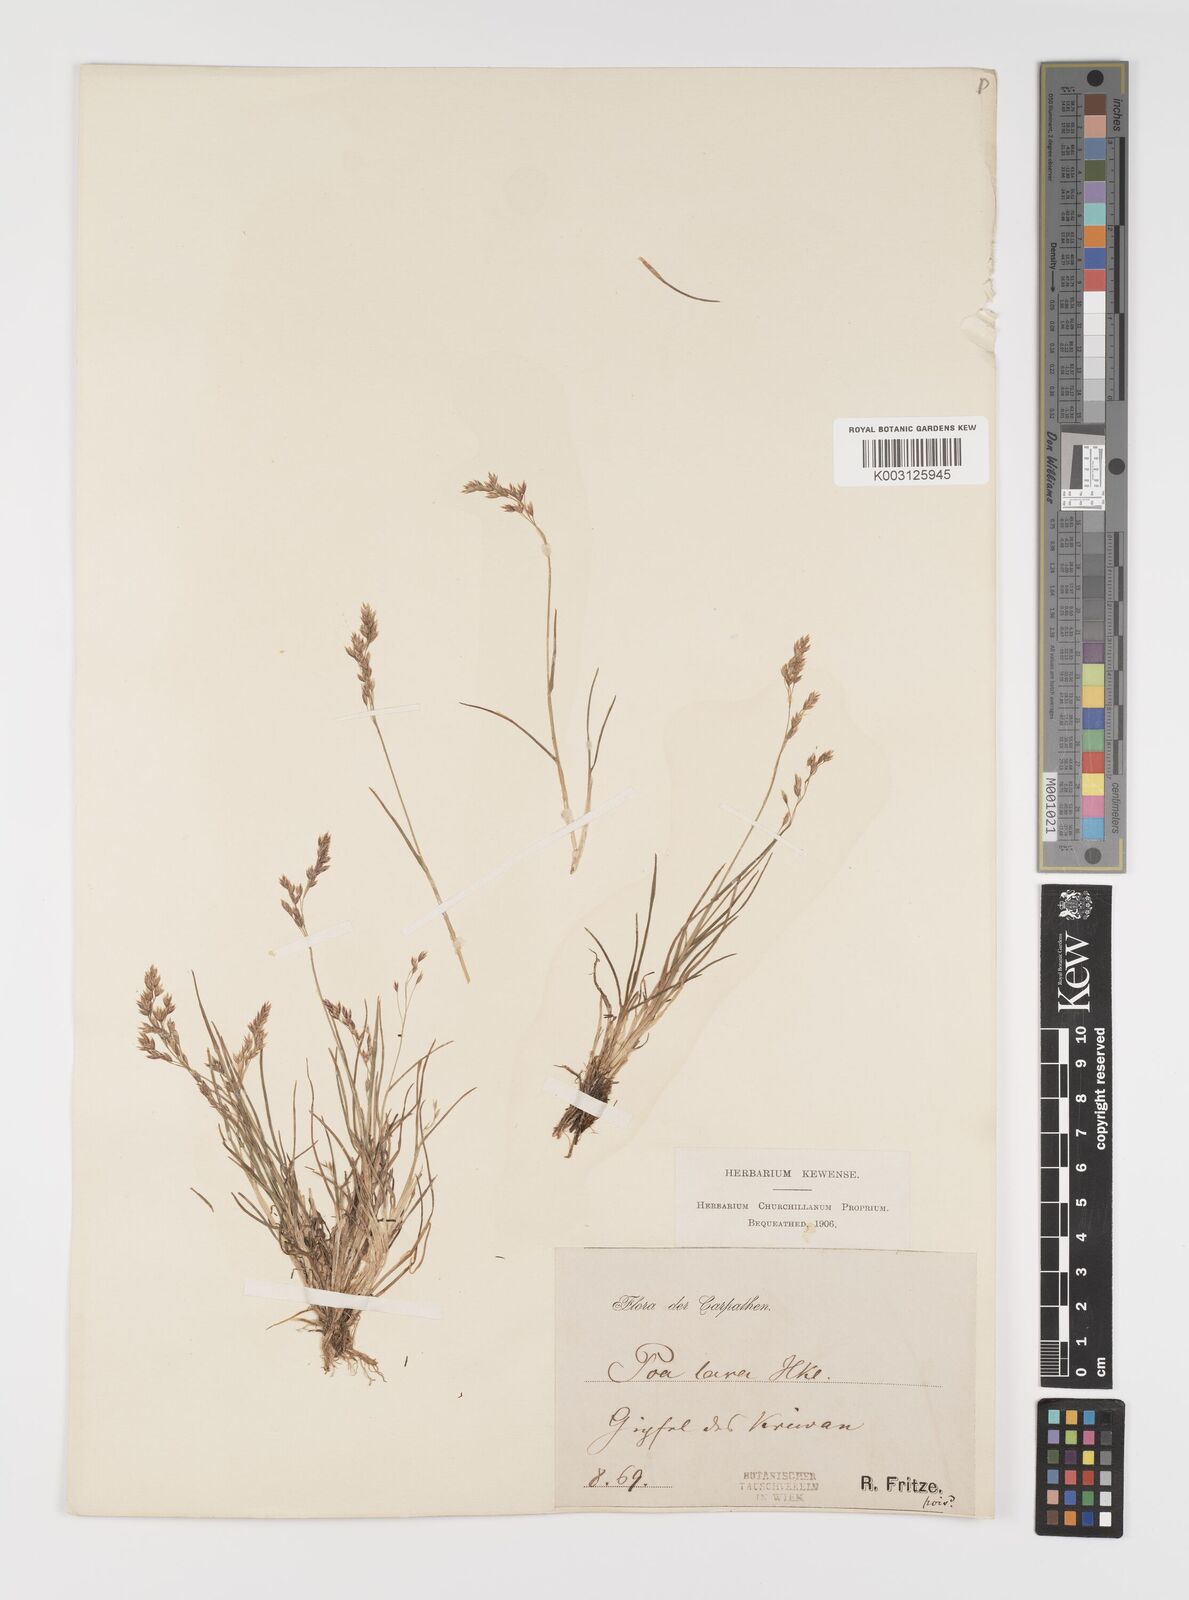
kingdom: Plantae
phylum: Tracheophyta
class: Liliopsida
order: Poales
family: Poaceae
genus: Poa
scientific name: Poa laxa
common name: Lax bluegrass
